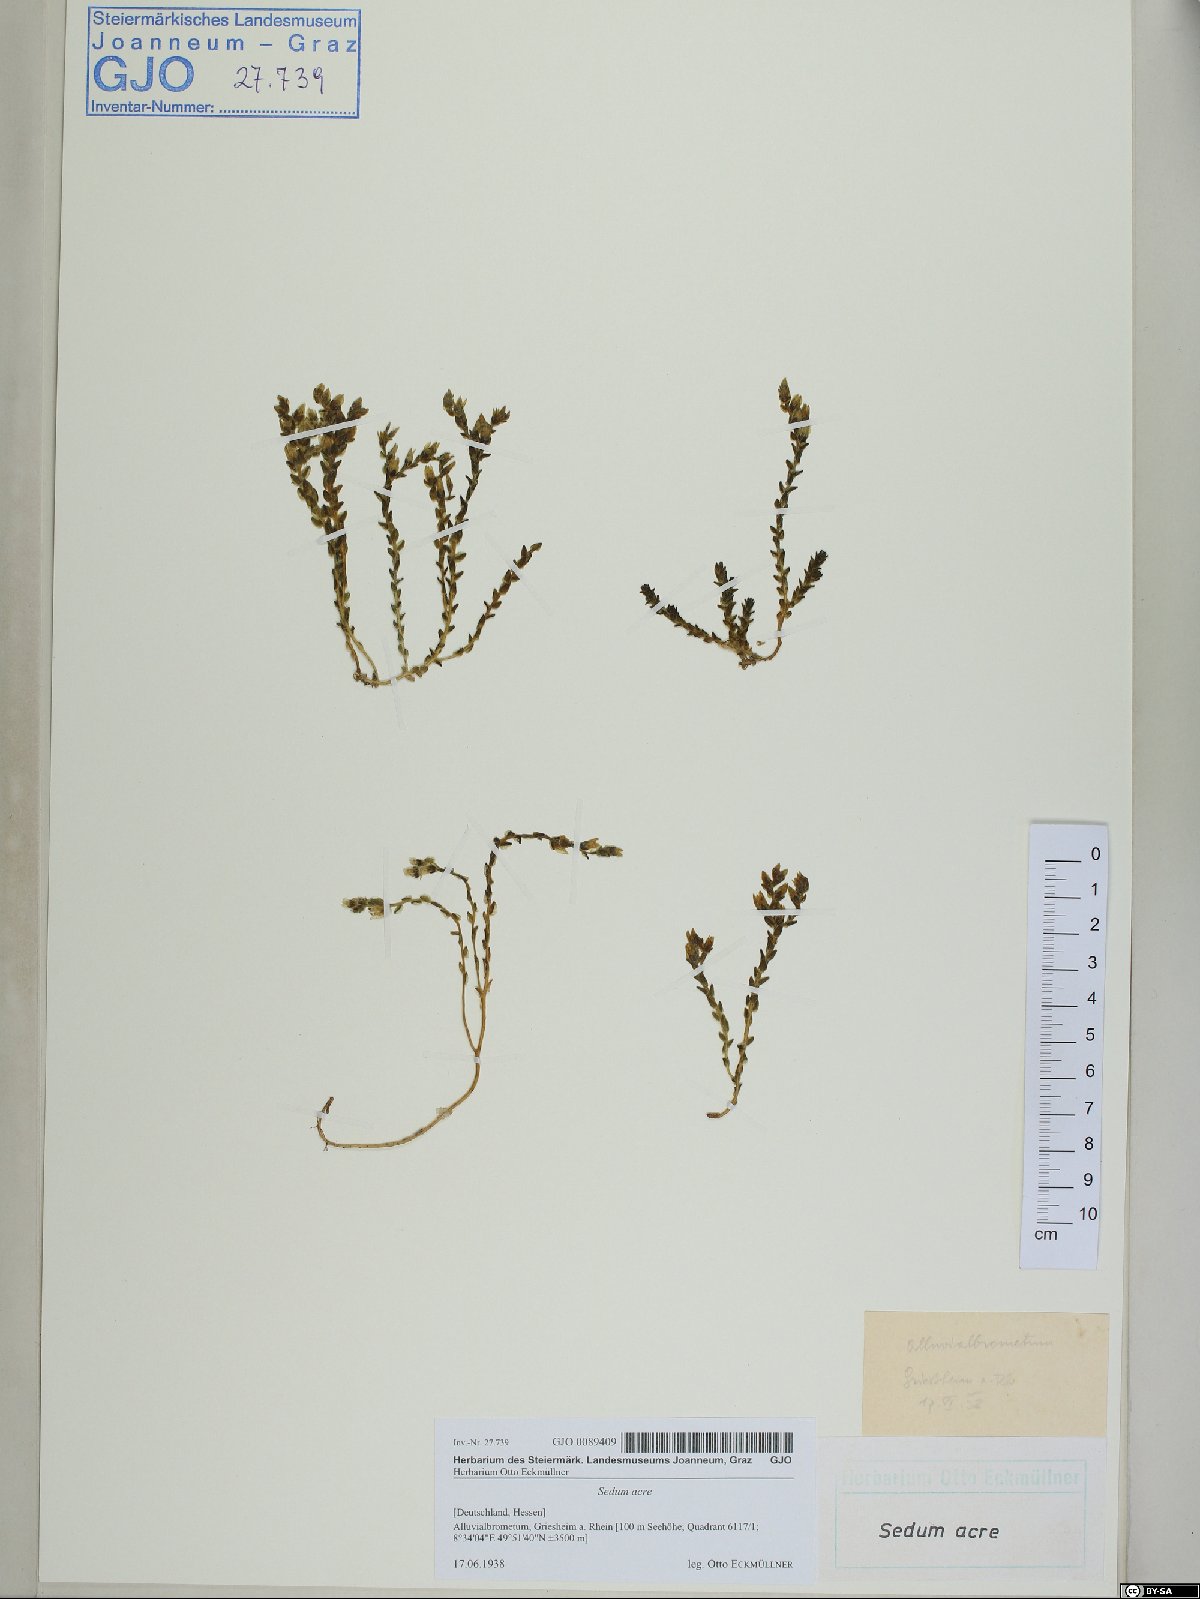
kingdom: Plantae
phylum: Tracheophyta
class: Magnoliopsida
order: Saxifragales
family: Crassulaceae
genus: Sedum
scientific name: Sedum acre
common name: Biting stonecrop
